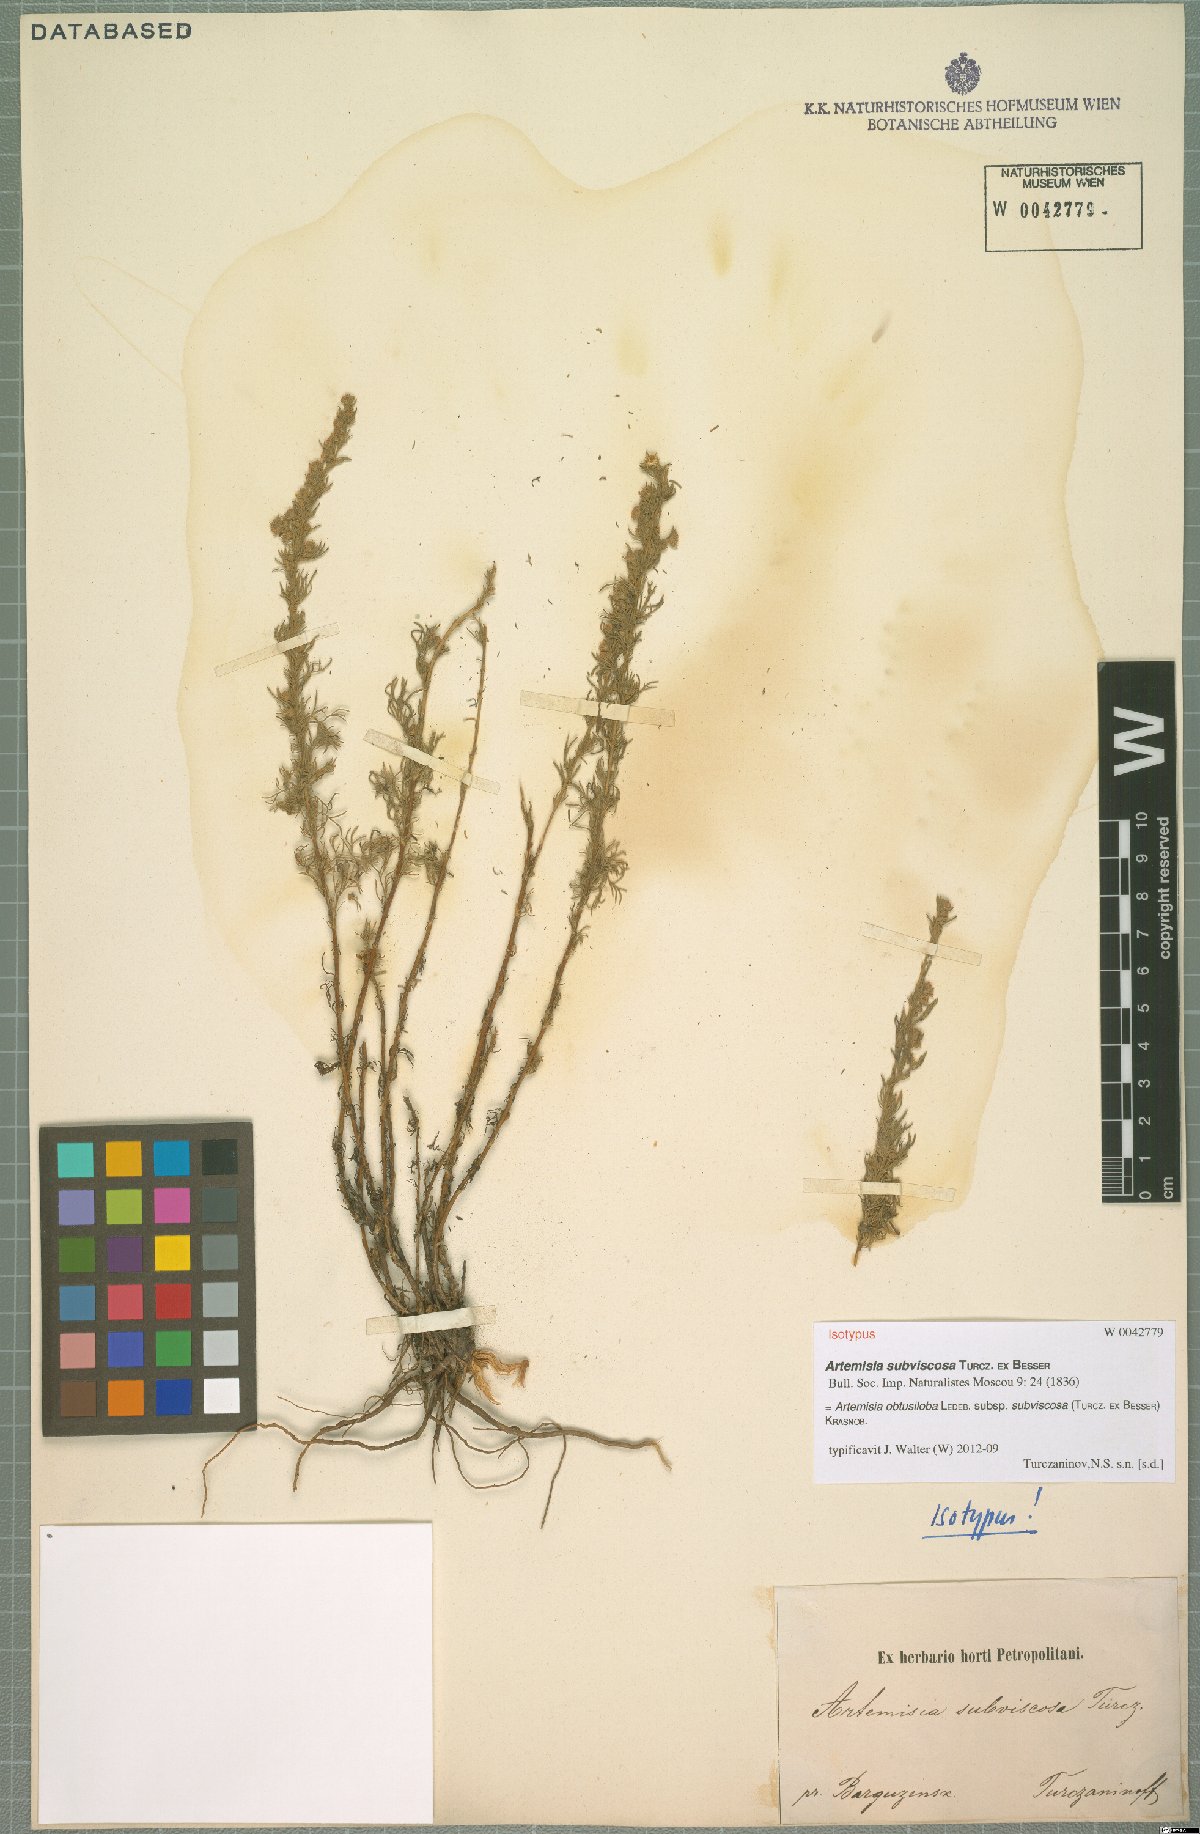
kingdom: Plantae
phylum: Tracheophyta
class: Magnoliopsida
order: Asterales
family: Asteraceae
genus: Artemisia
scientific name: Artemisia obtusiloba
